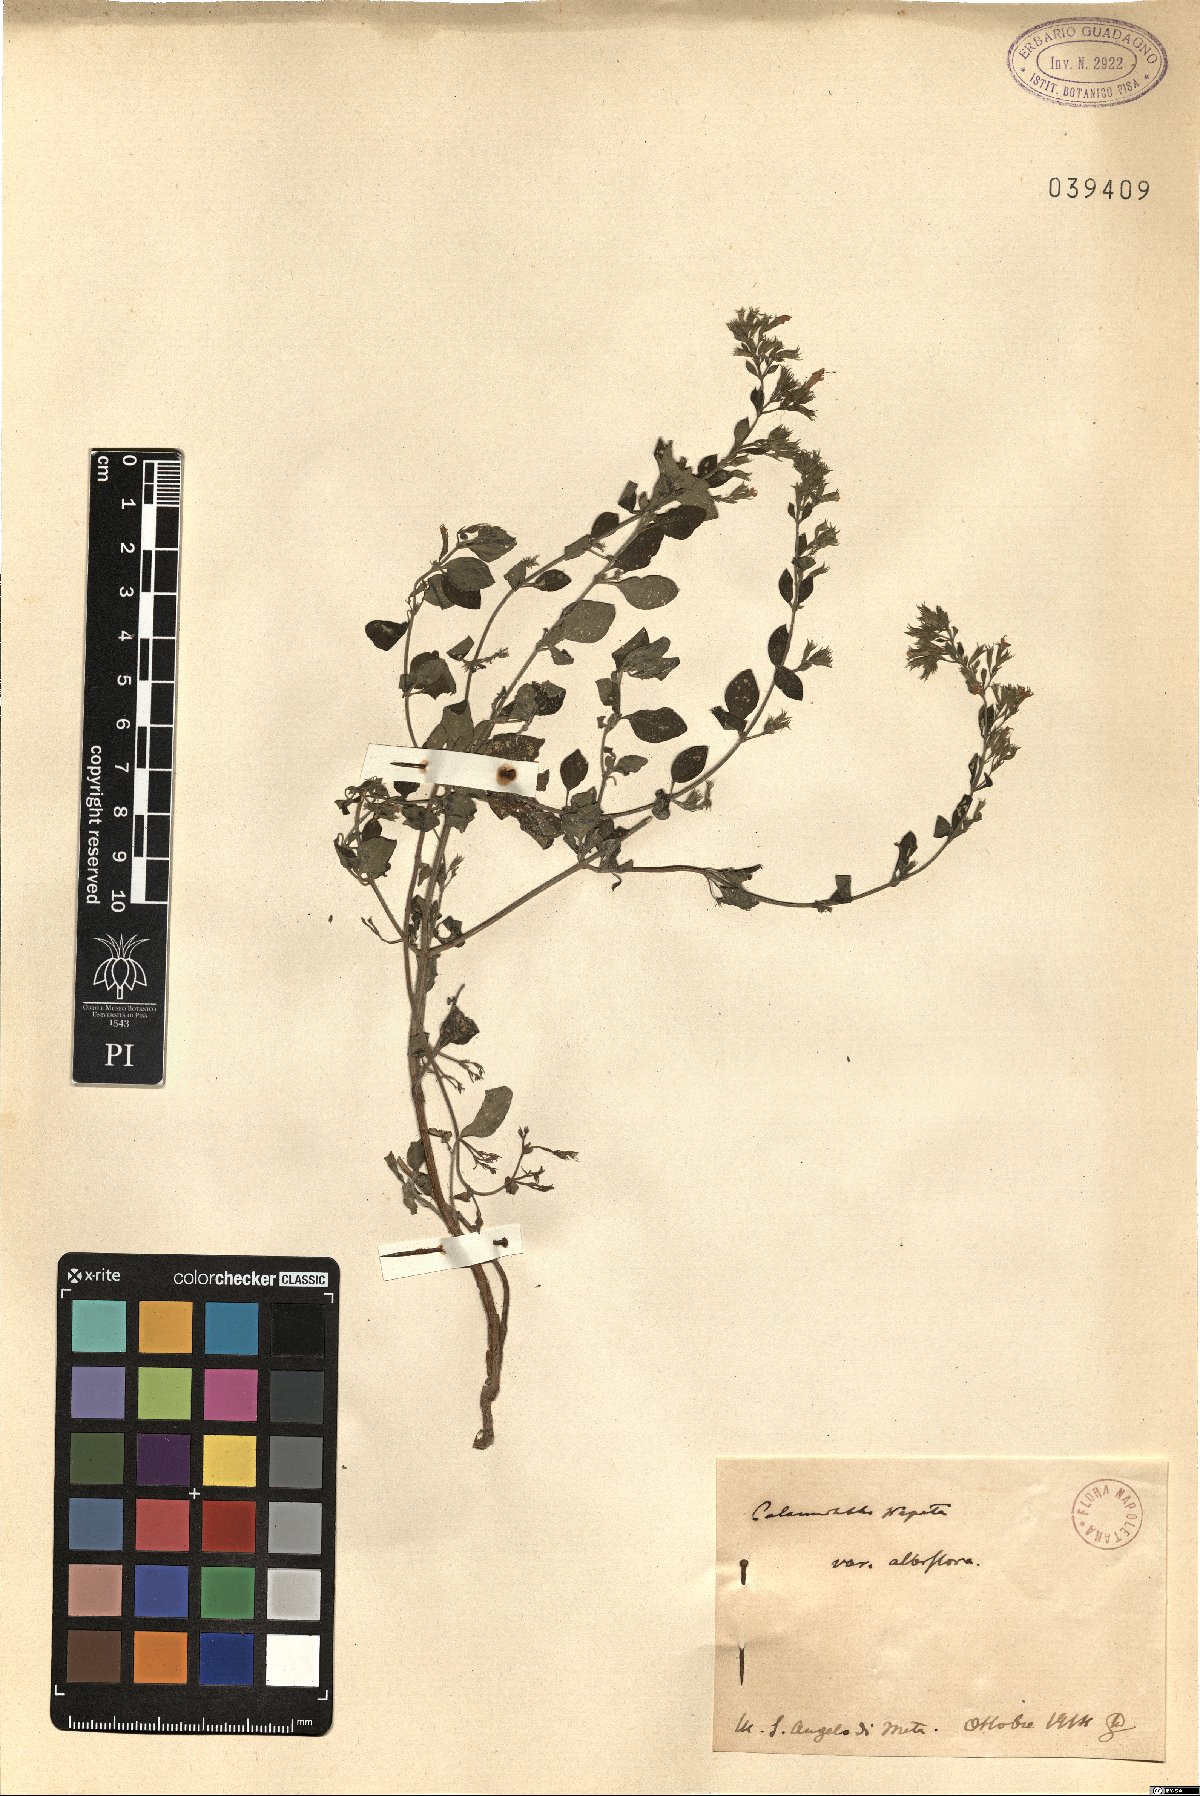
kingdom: Plantae
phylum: Tracheophyta
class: Magnoliopsida
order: Lamiales
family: Lamiaceae
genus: Clinopodium
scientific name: Clinopodium nepeta
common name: Lesser calamint
